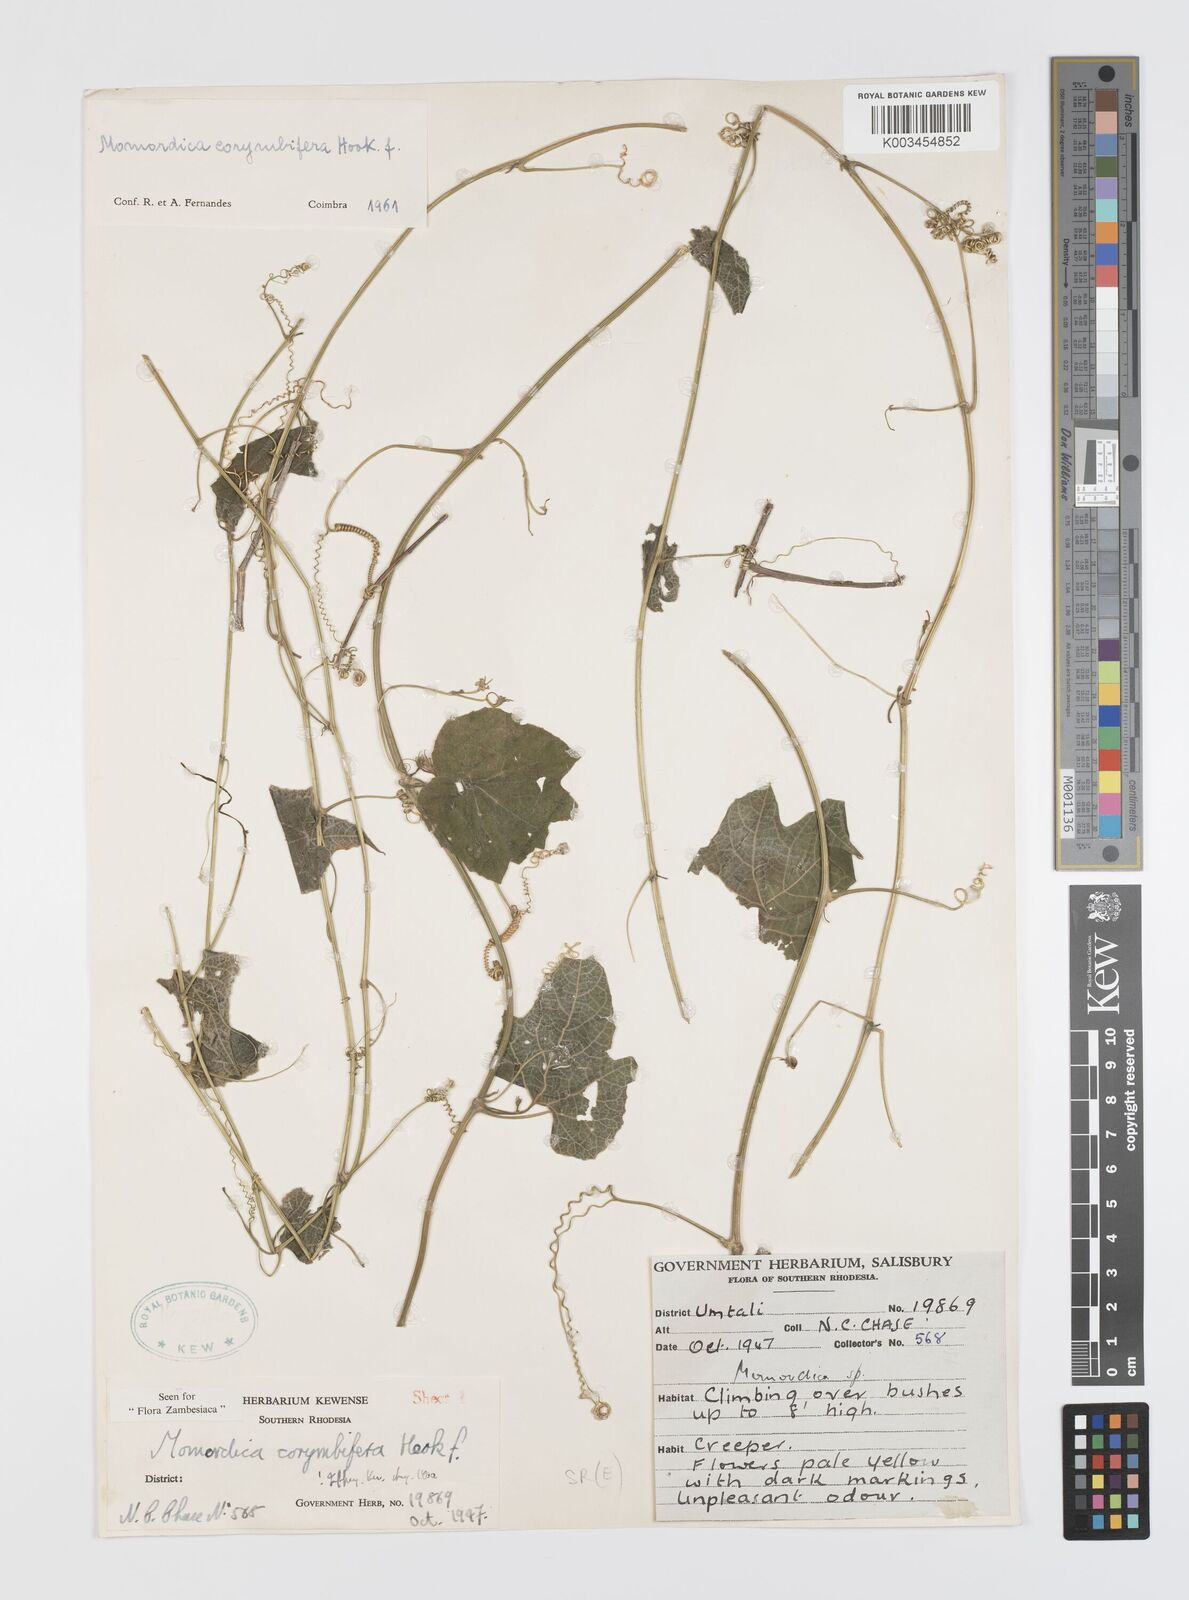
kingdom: Plantae
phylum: Tracheophyta
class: Magnoliopsida
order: Cucurbitales
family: Cucurbitaceae
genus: Momordica
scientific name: Momordica corymbifera
